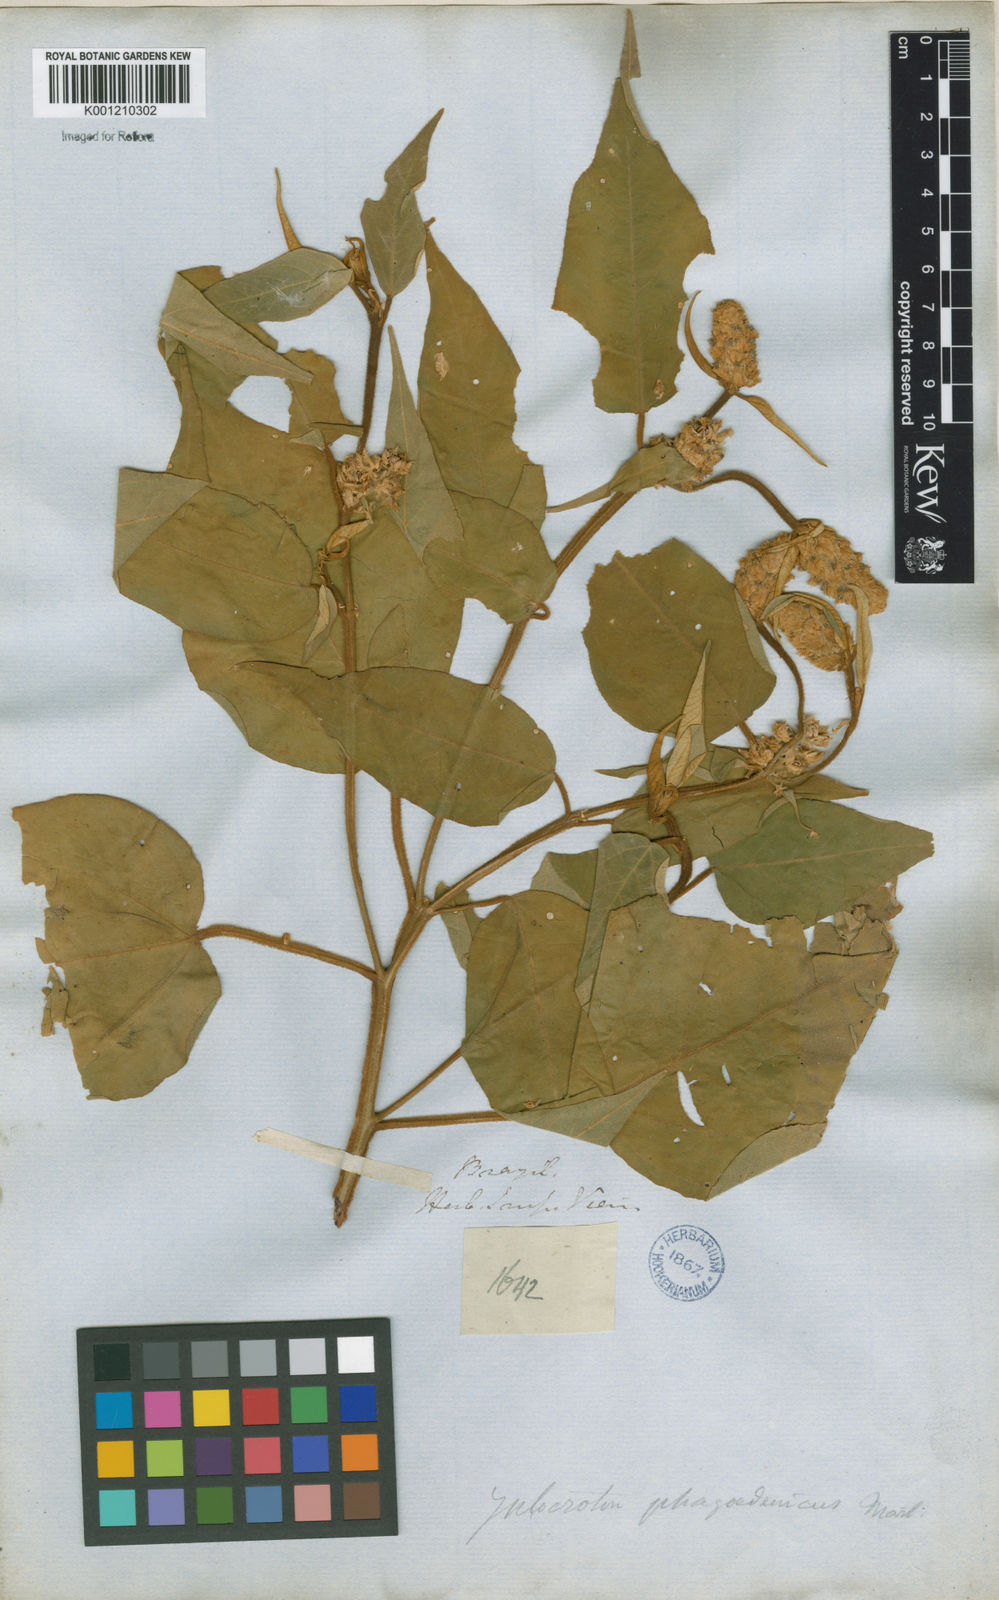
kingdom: Plantae
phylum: Tracheophyta
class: Magnoliopsida
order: Malpighiales
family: Euphorbiaceae
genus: Croton
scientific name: Croton triqueter
